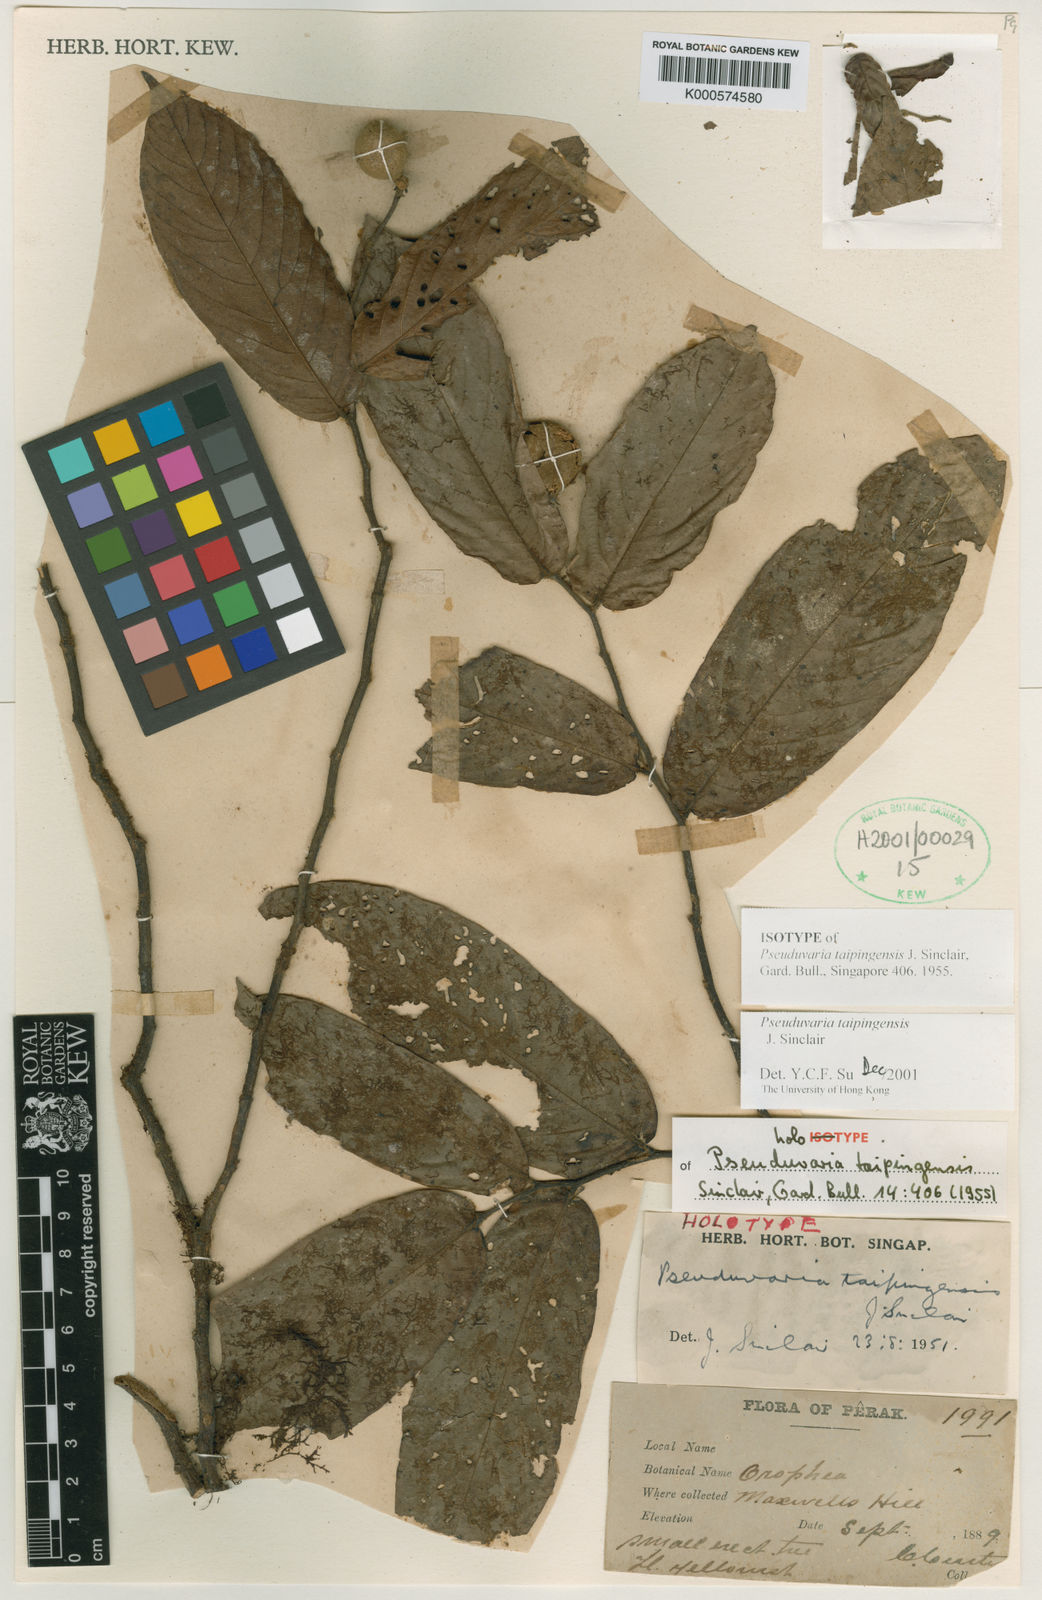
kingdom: Plantae
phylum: Tracheophyta
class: Magnoliopsida
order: Magnoliales
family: Annonaceae
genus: Pseuduvaria
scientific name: Pseuduvaria taipingensis
